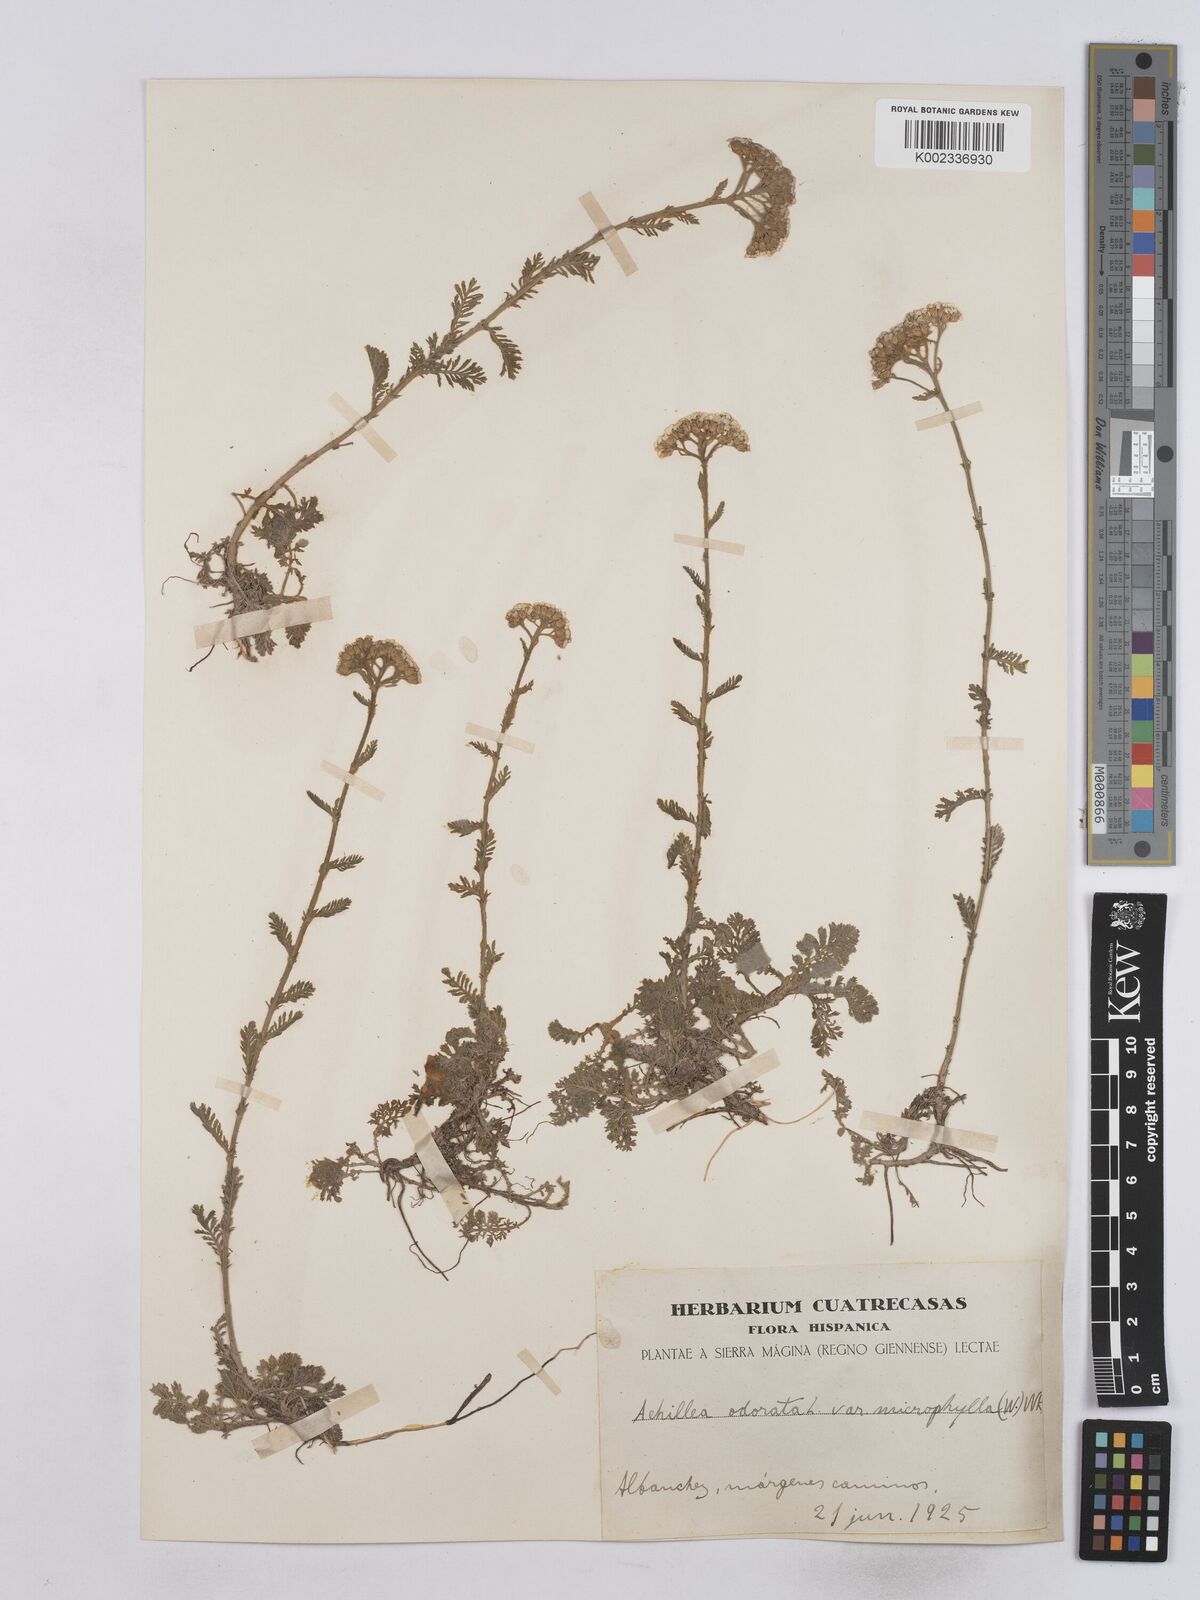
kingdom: Plantae
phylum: Tracheophyta
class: Magnoliopsida
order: Asterales
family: Asteraceae
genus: Achillea
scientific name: Achillea odorata
